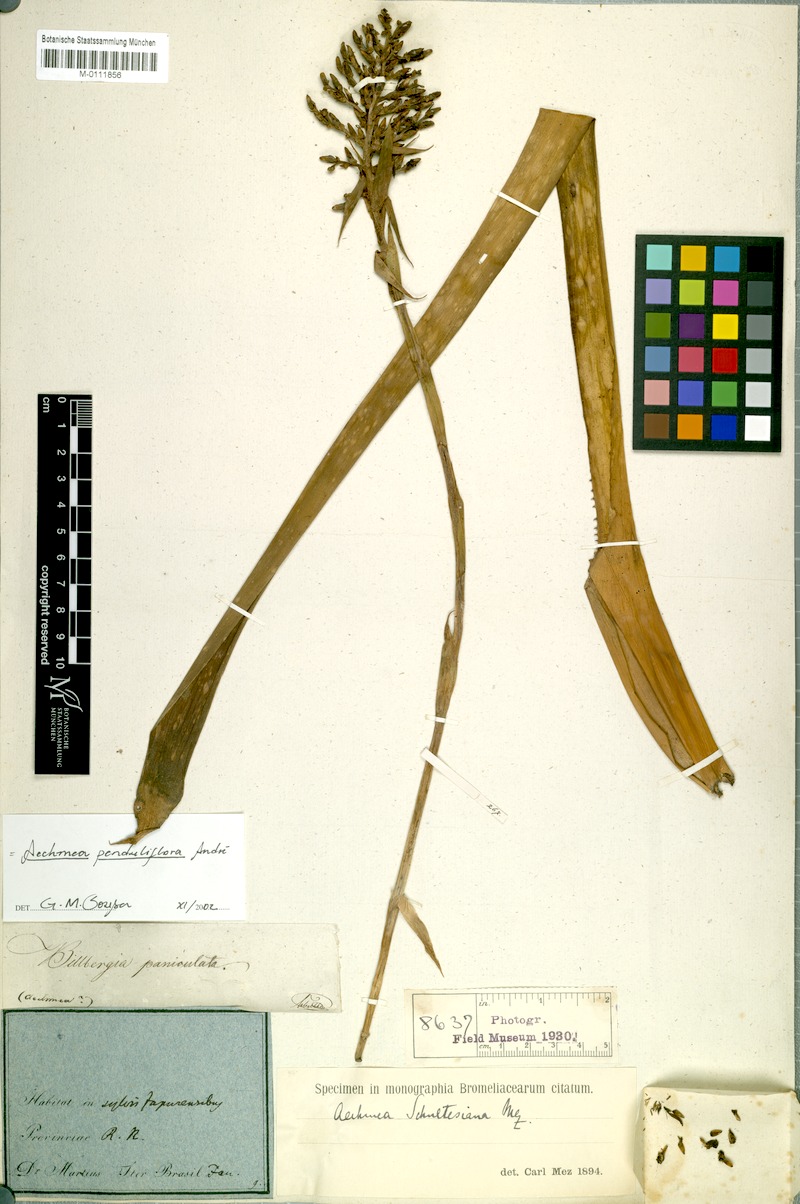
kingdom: Plantae
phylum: Tracheophyta
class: Liliopsida
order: Poales
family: Bromeliaceae
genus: Aechmea
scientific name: Aechmea penduliflora
